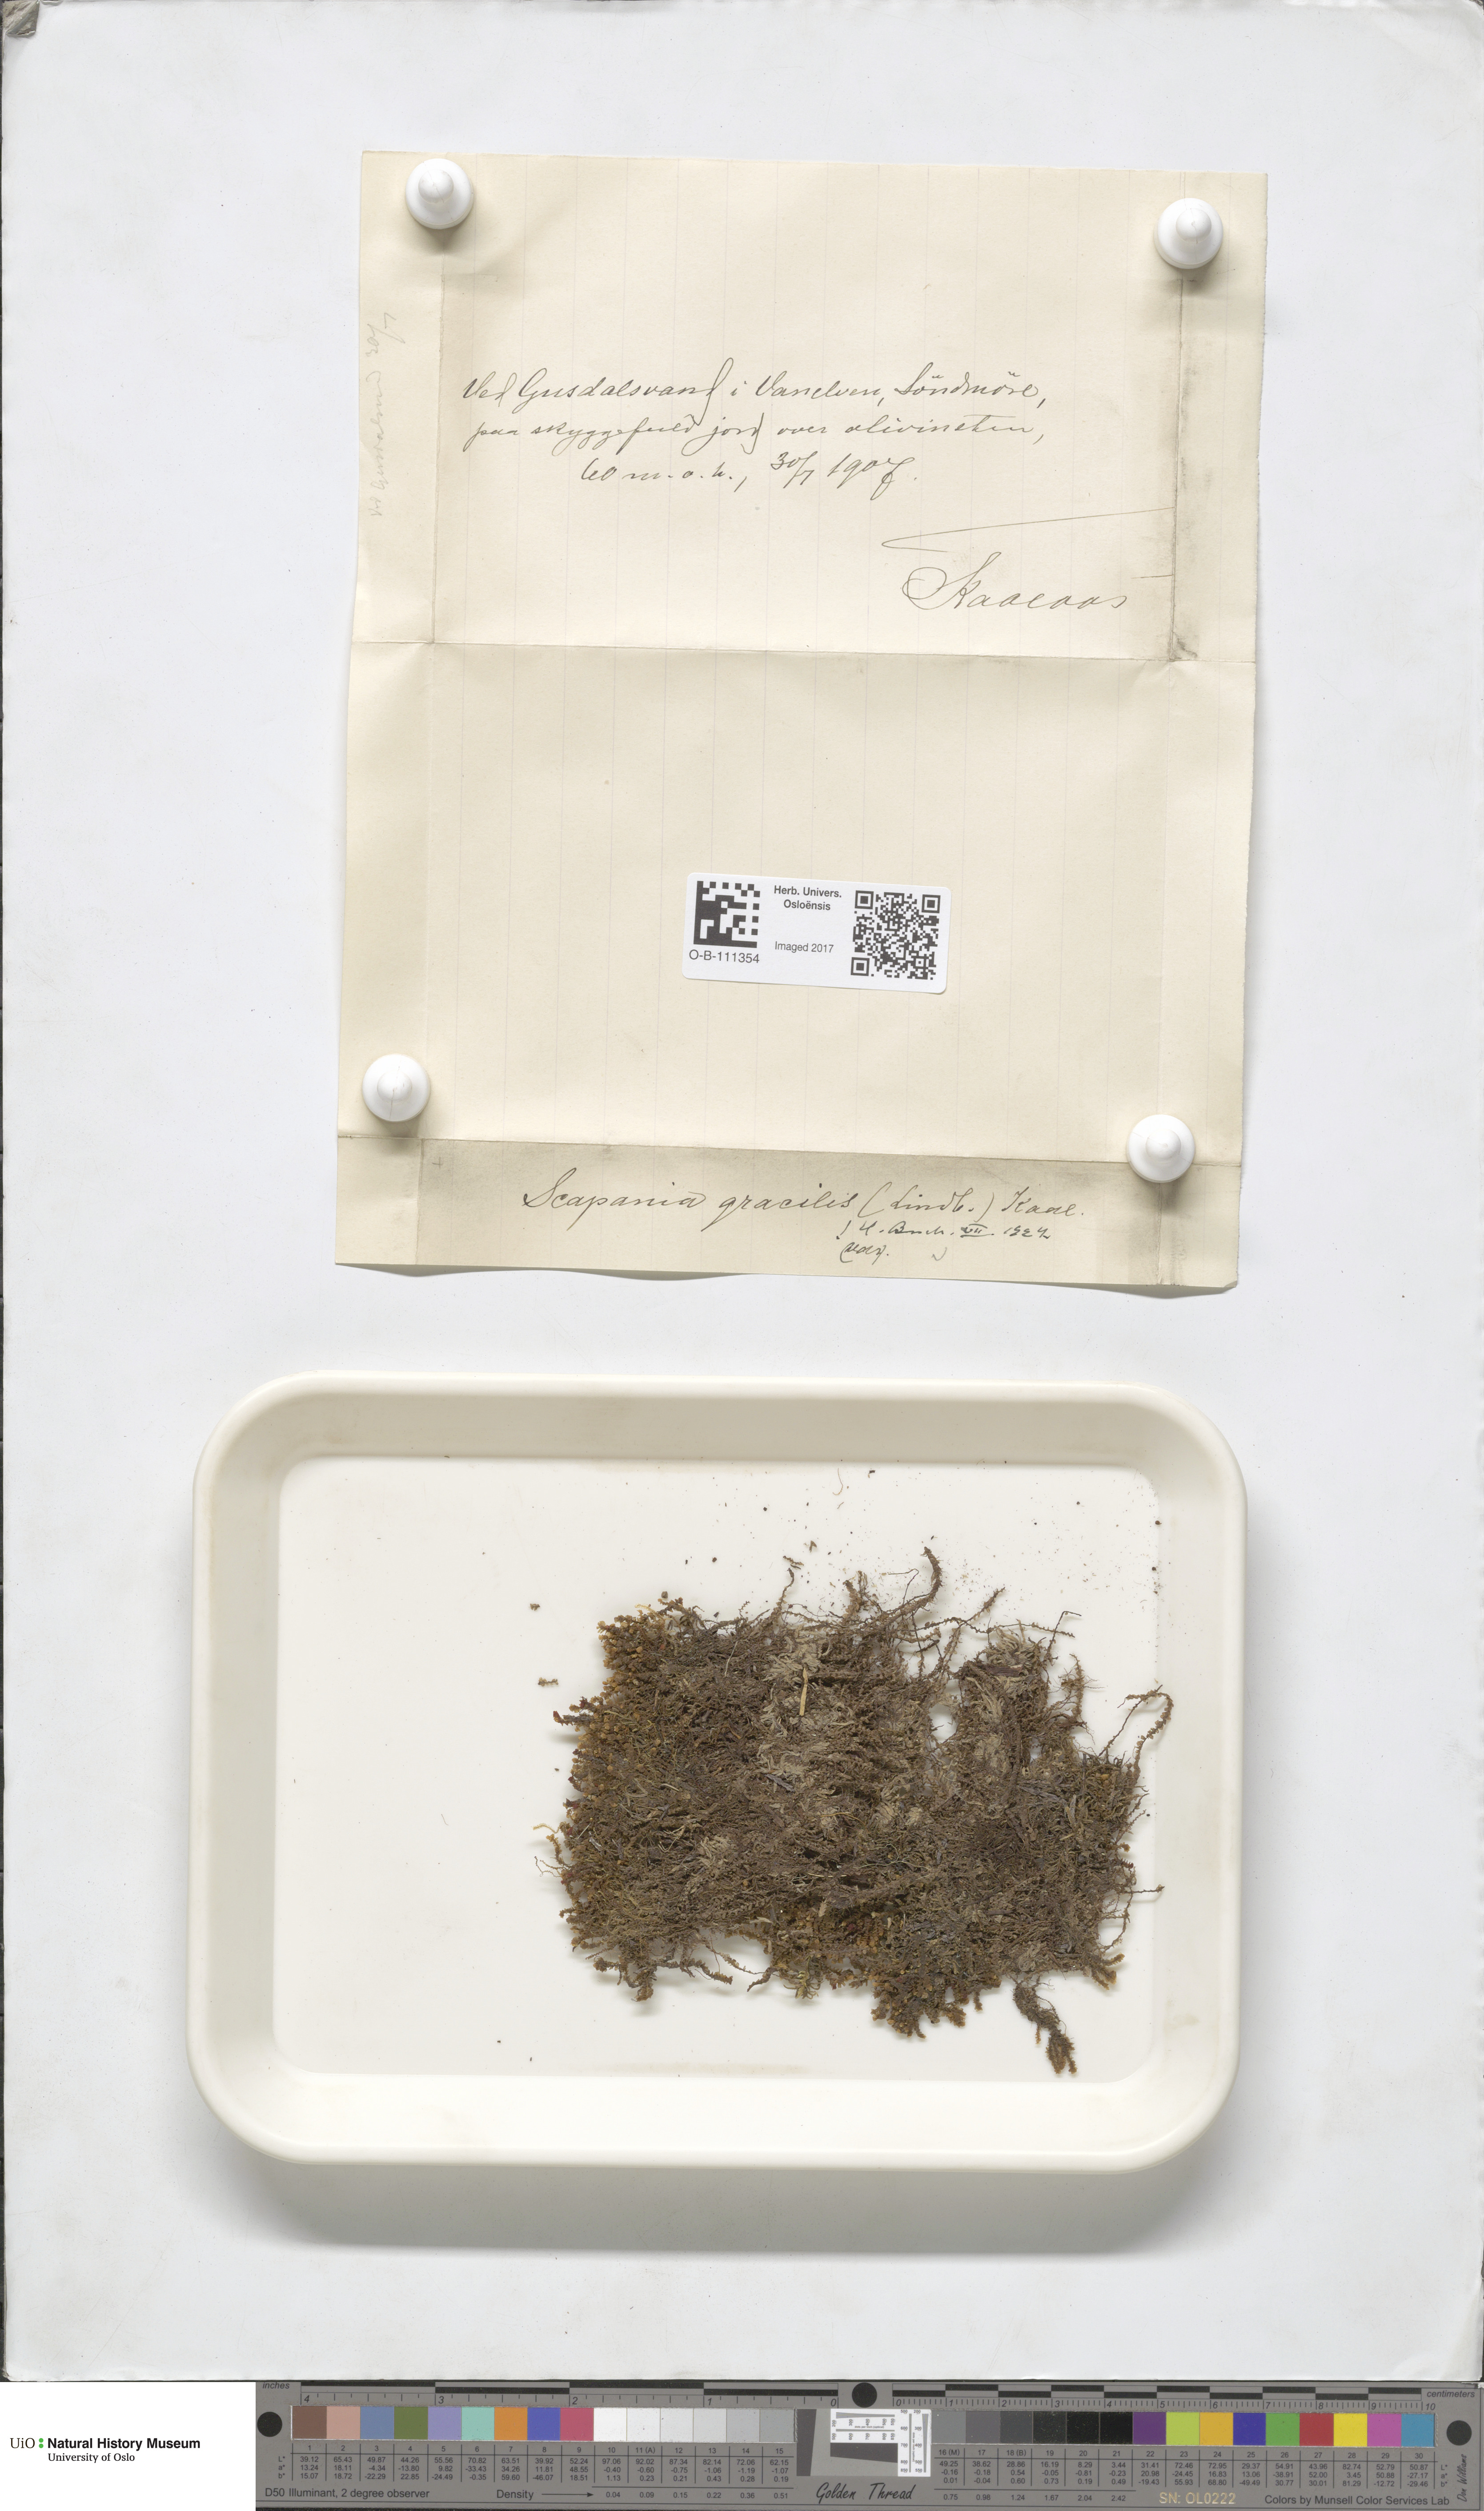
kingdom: Plantae
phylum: Marchantiophyta
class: Jungermanniopsida
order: Jungermanniales
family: Scapaniaceae
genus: Scapania
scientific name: Scapania gracilis
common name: Western earwort
